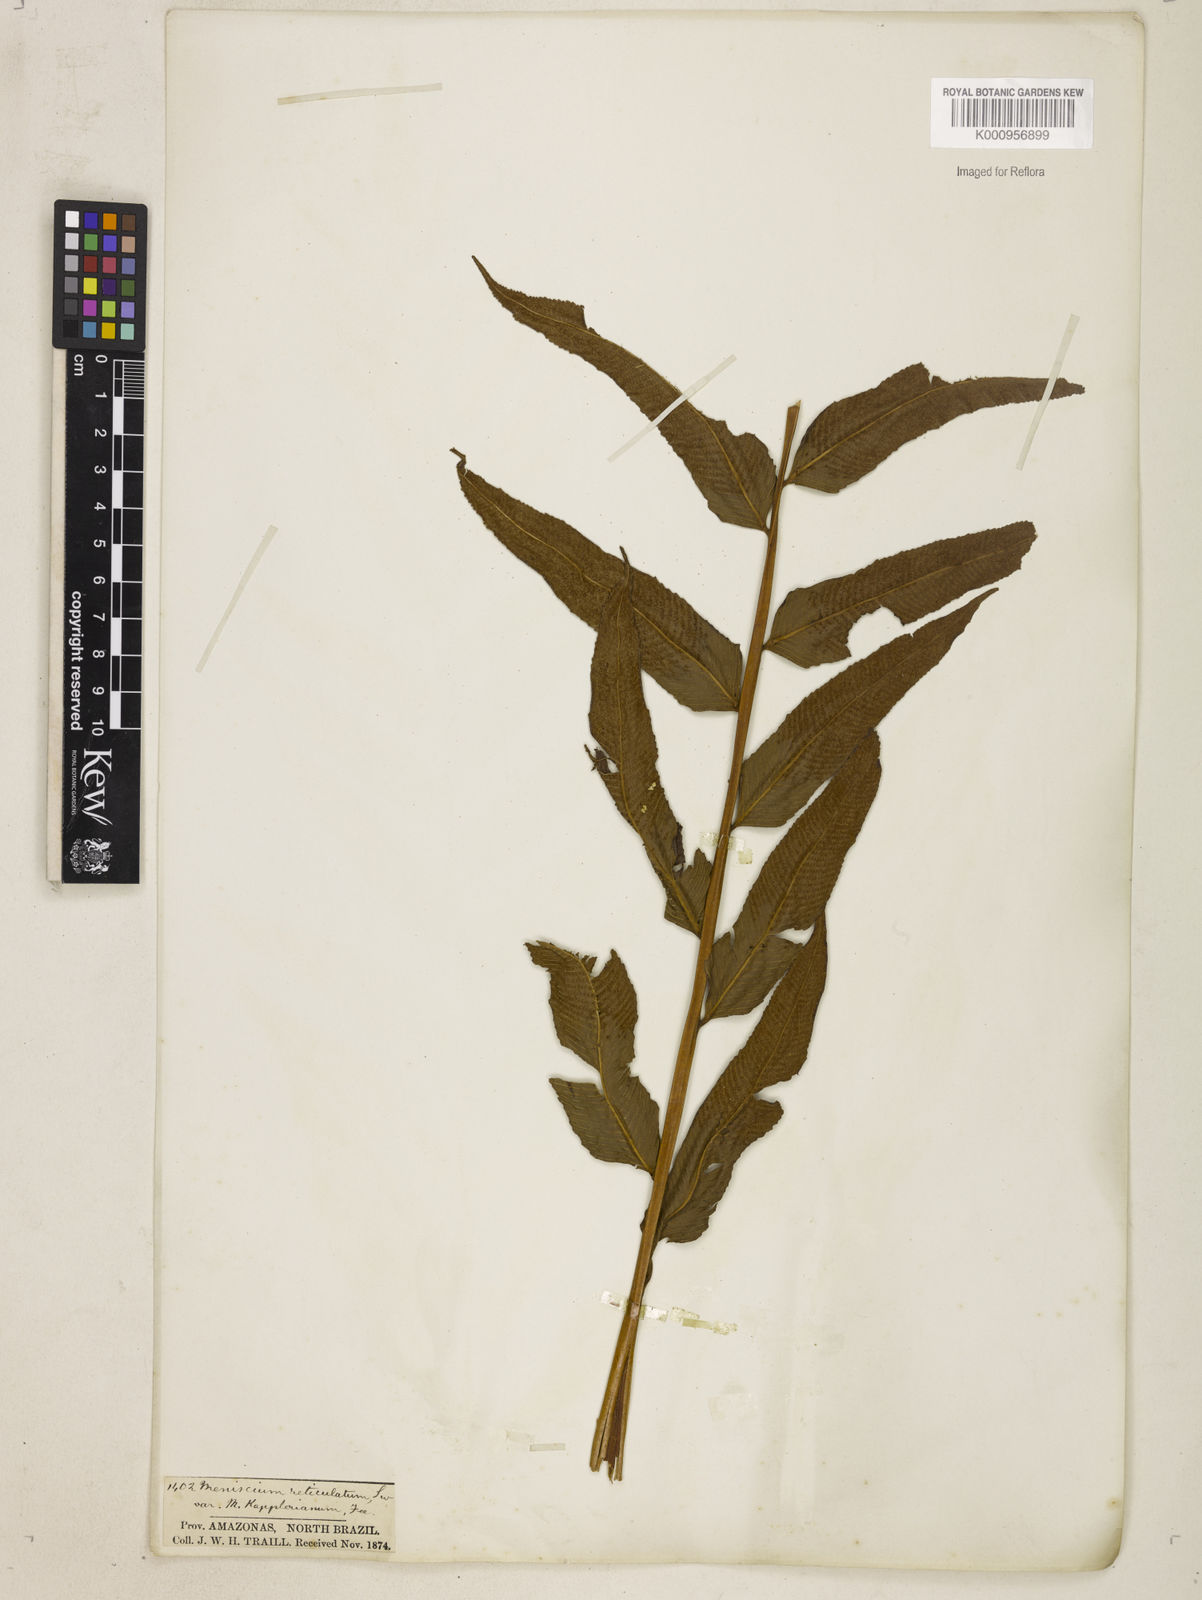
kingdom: Plantae
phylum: Tracheophyta
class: Polypodiopsida
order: Polypodiales
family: Thelypteridaceae
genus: Meniscium
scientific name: Meniscium
